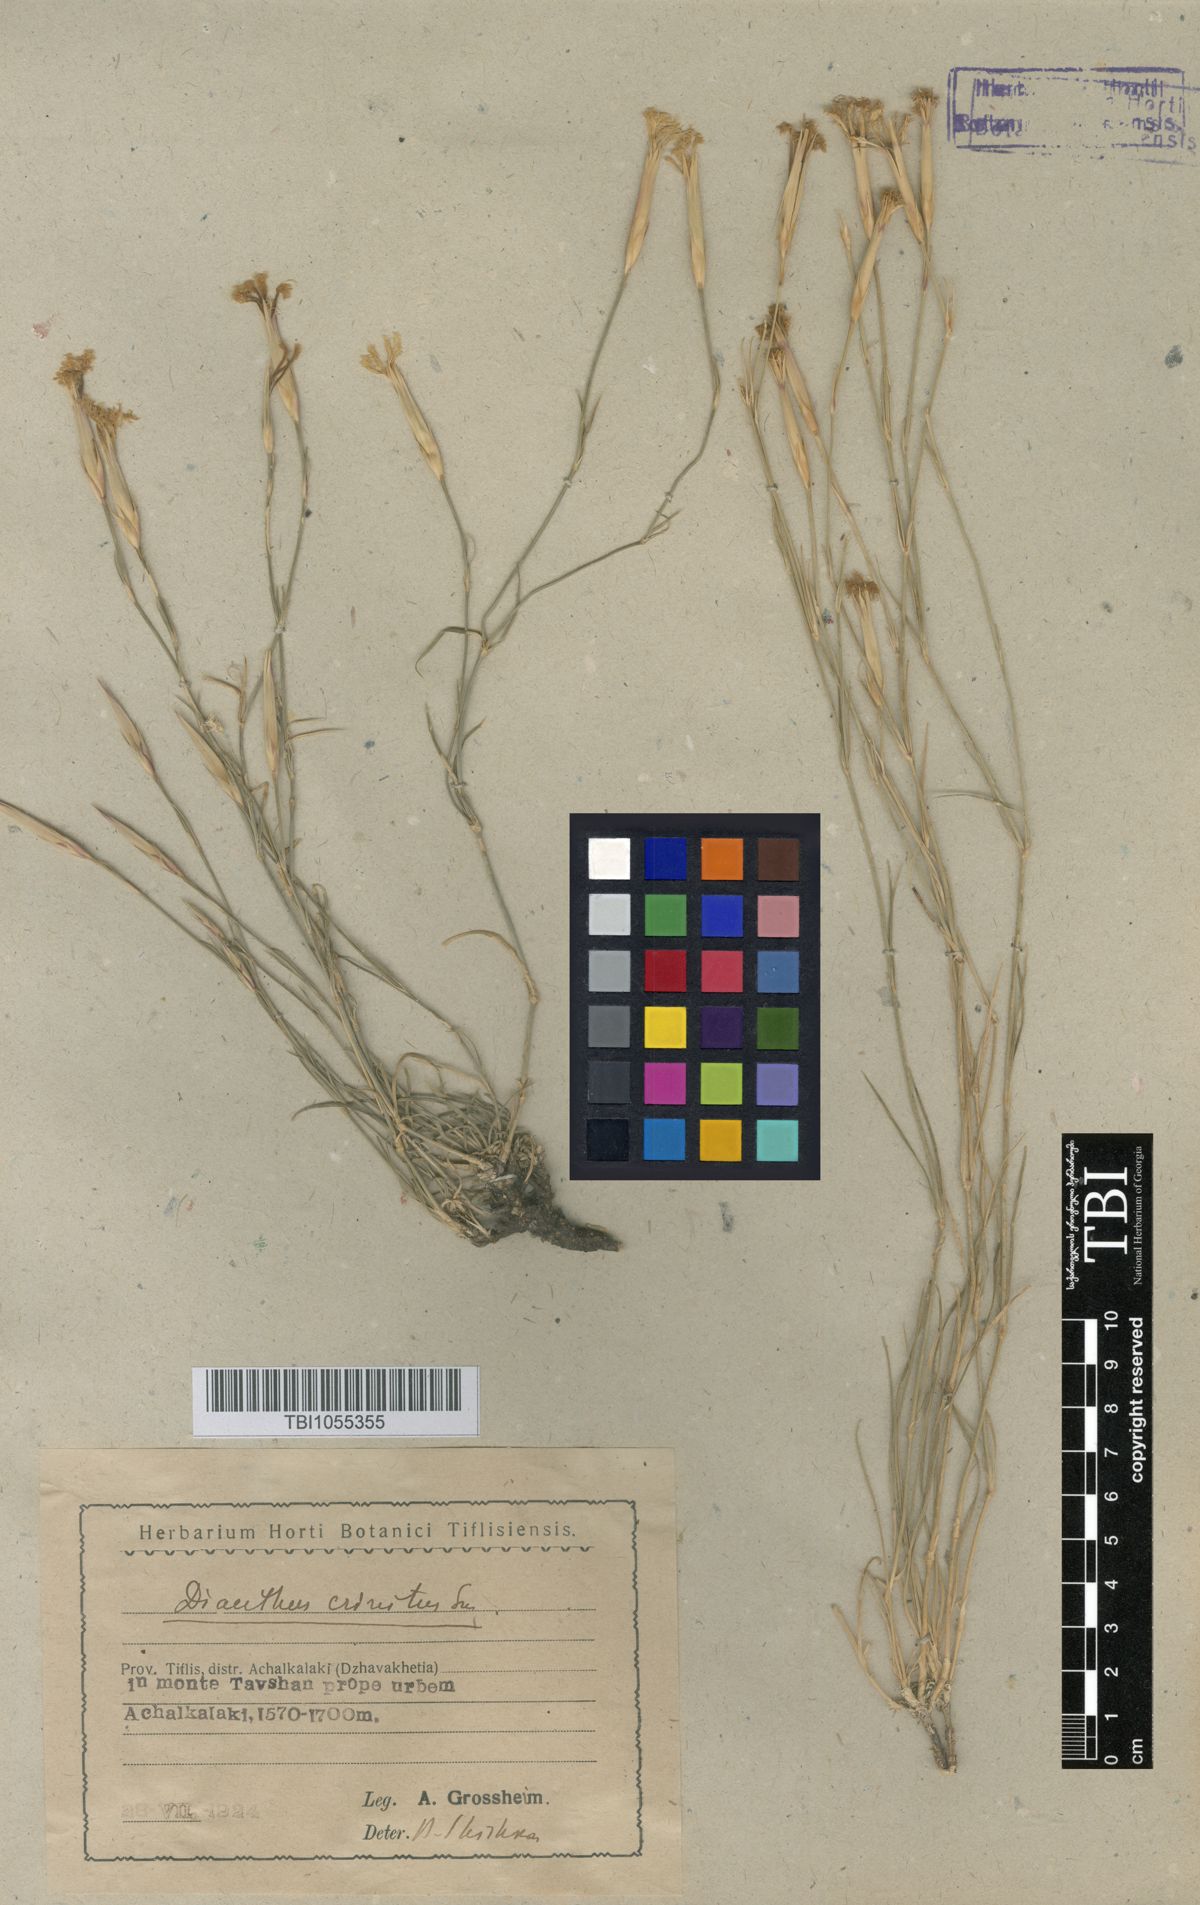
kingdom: Plantae
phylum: Tracheophyta
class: Magnoliopsida
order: Caryophyllales
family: Caryophyllaceae
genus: Dianthus
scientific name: Dianthus crinitus
